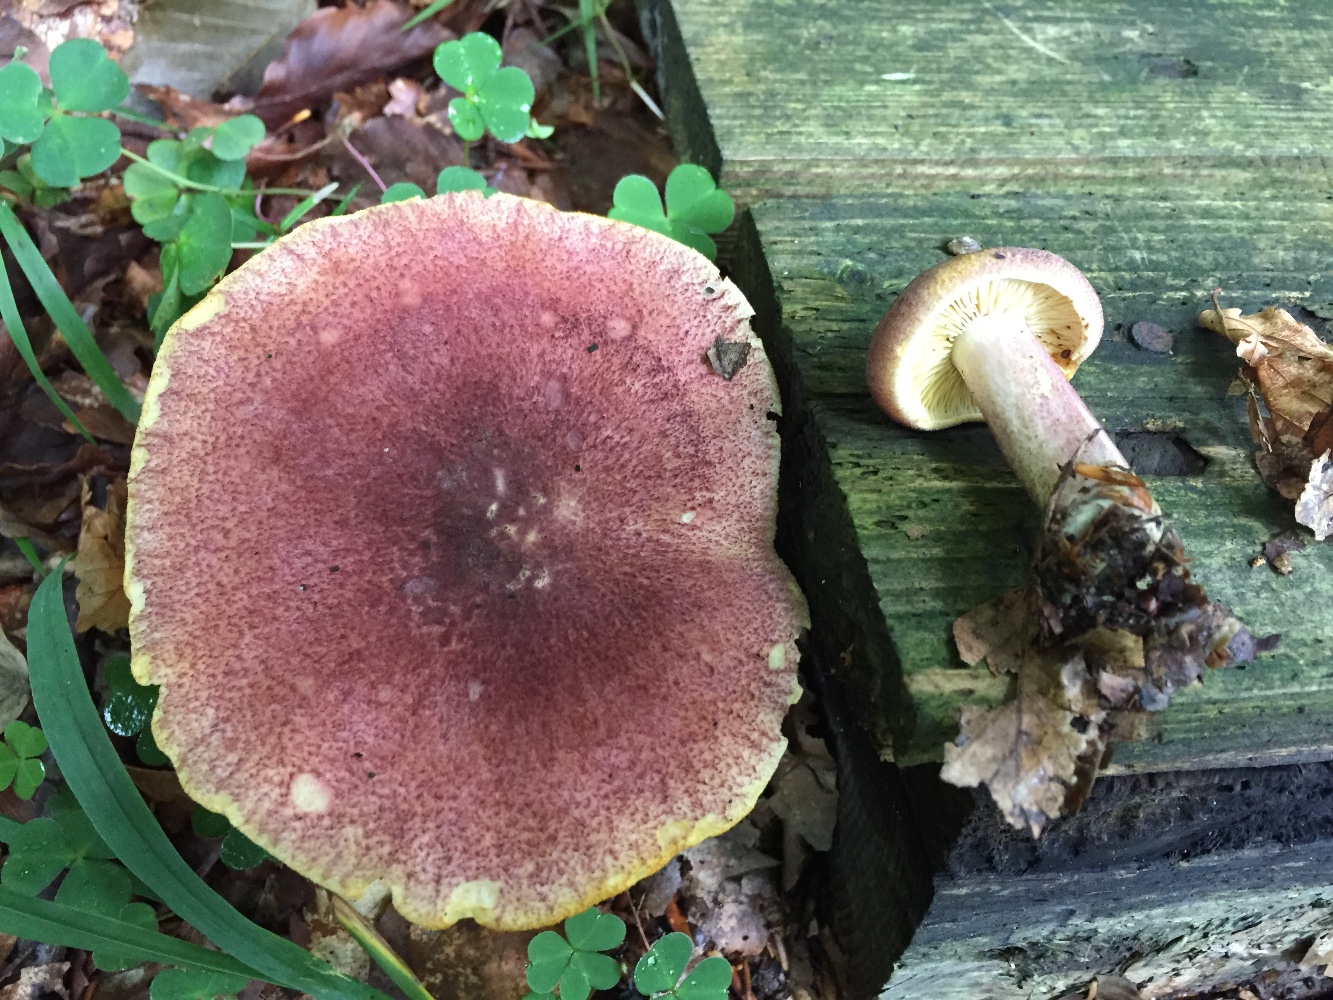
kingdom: Fungi
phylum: Basidiomycota
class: Agaricomycetes
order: Agaricales
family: Tricholomataceae
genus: Tricholomopsis
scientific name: Tricholomopsis rutilans
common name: purpur-væbnerhat
